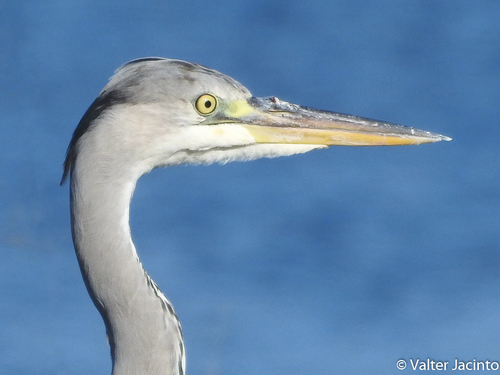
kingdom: Animalia
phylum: Chordata
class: Aves
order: Pelecaniformes
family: Ardeidae
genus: Ardea
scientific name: Ardea cinerea
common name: Grey heron
